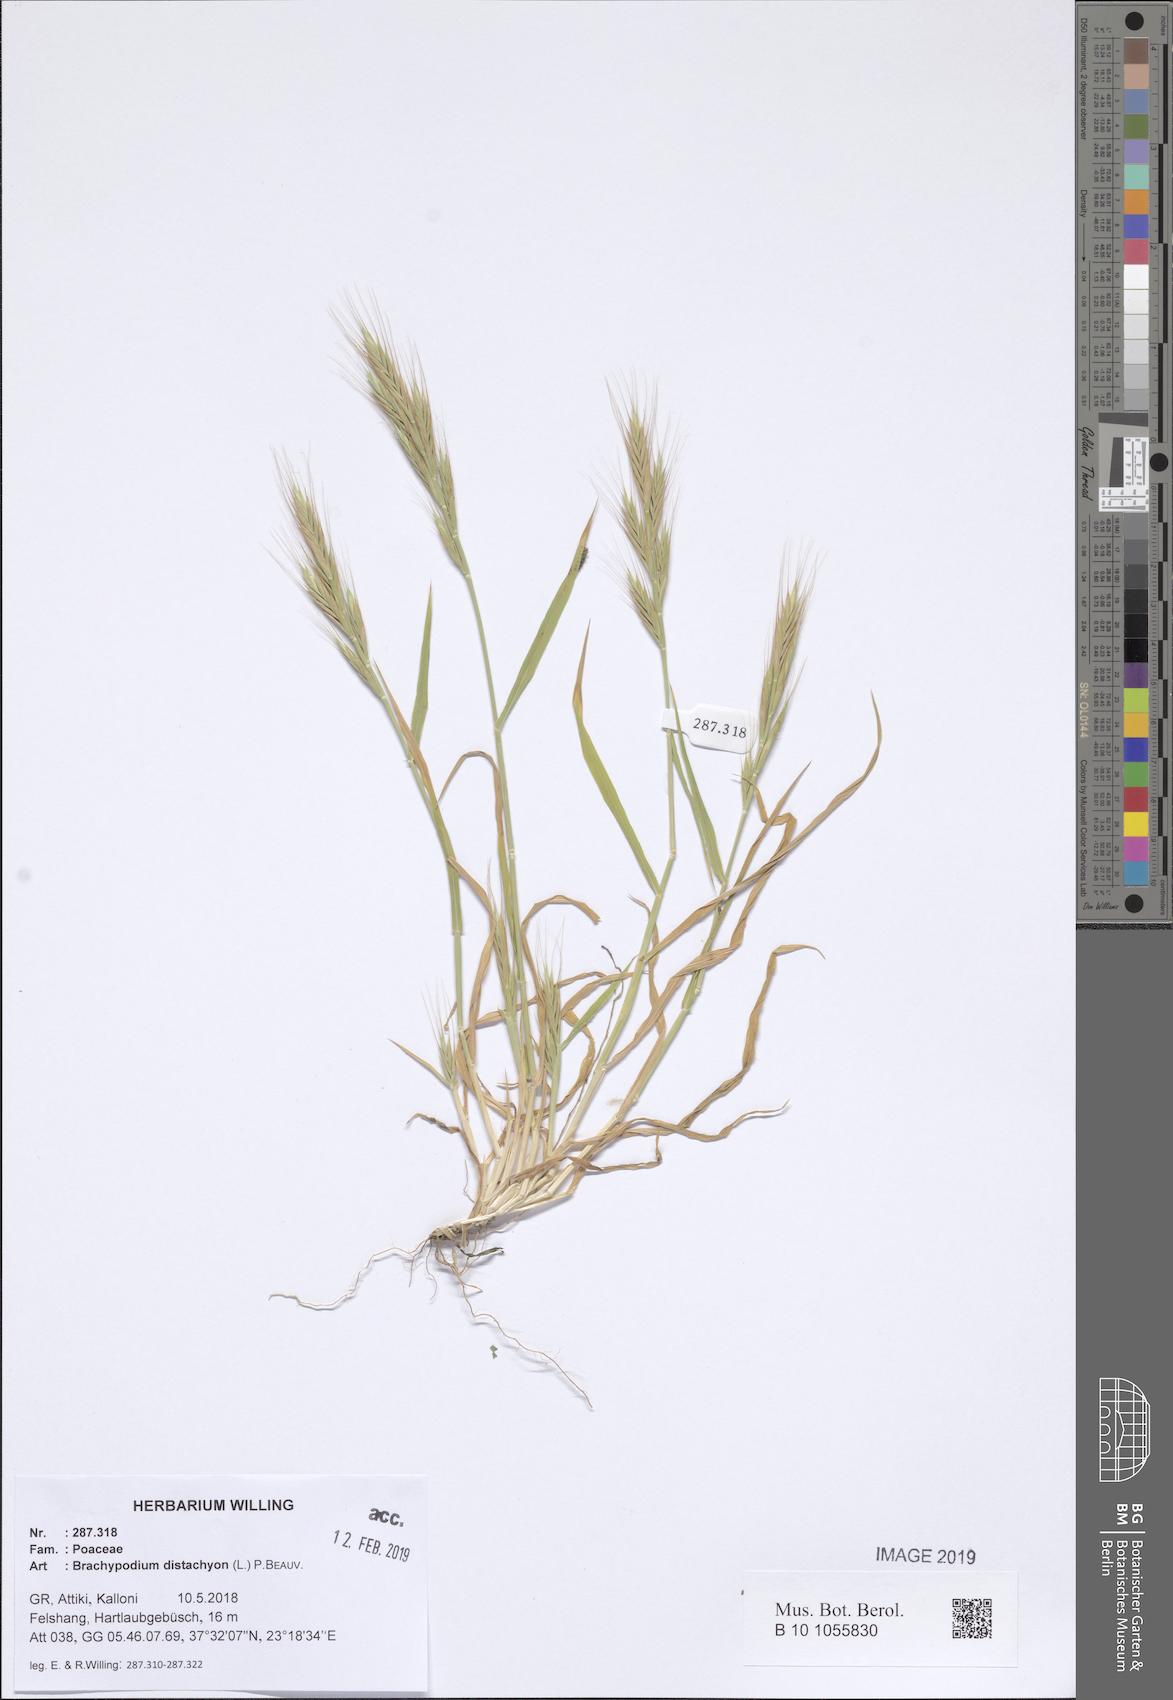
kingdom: Plantae
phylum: Tracheophyta
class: Liliopsida
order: Poales
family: Poaceae
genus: Brachypodium
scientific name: Brachypodium distachyon
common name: Stiff brome
